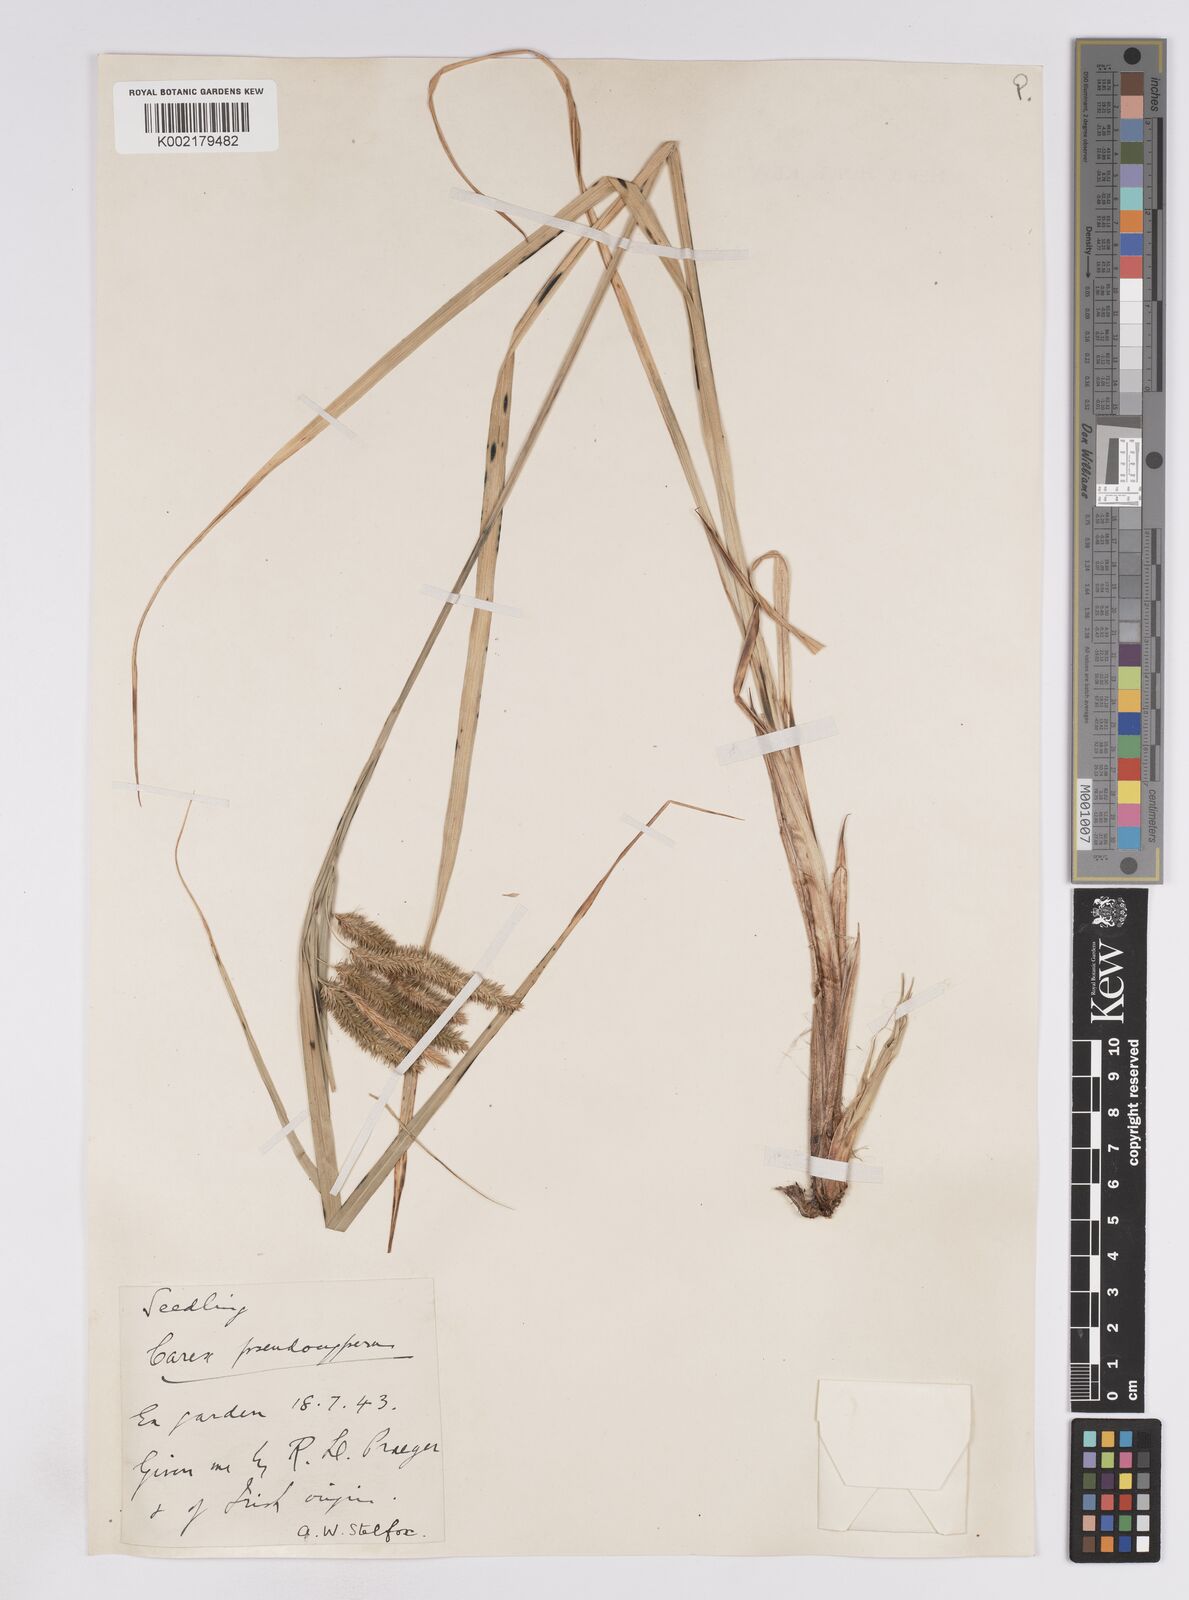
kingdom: Plantae
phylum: Tracheophyta
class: Liliopsida
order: Poales
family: Cyperaceae
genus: Carex
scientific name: Carex pseudocyperus
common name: Cyperus sedge
